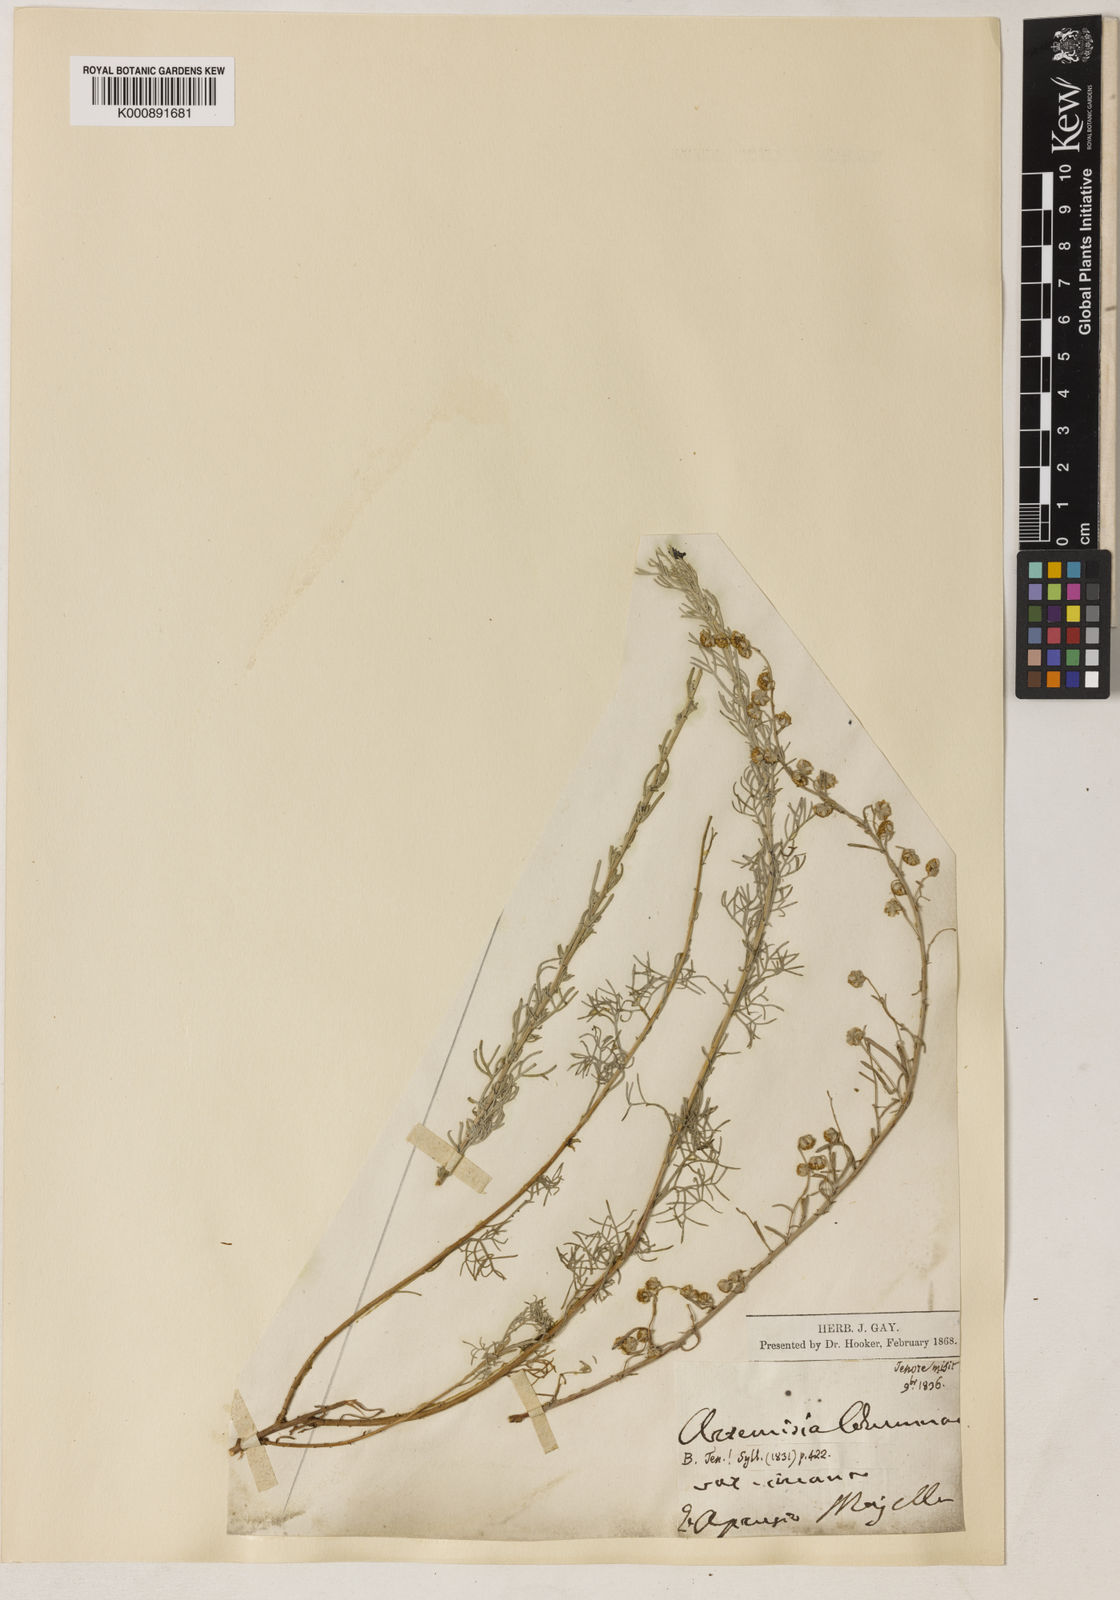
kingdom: Plantae
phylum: Tracheophyta
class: Magnoliopsida
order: Asterales
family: Asteraceae
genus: Artemisia
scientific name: Artemisia alba
